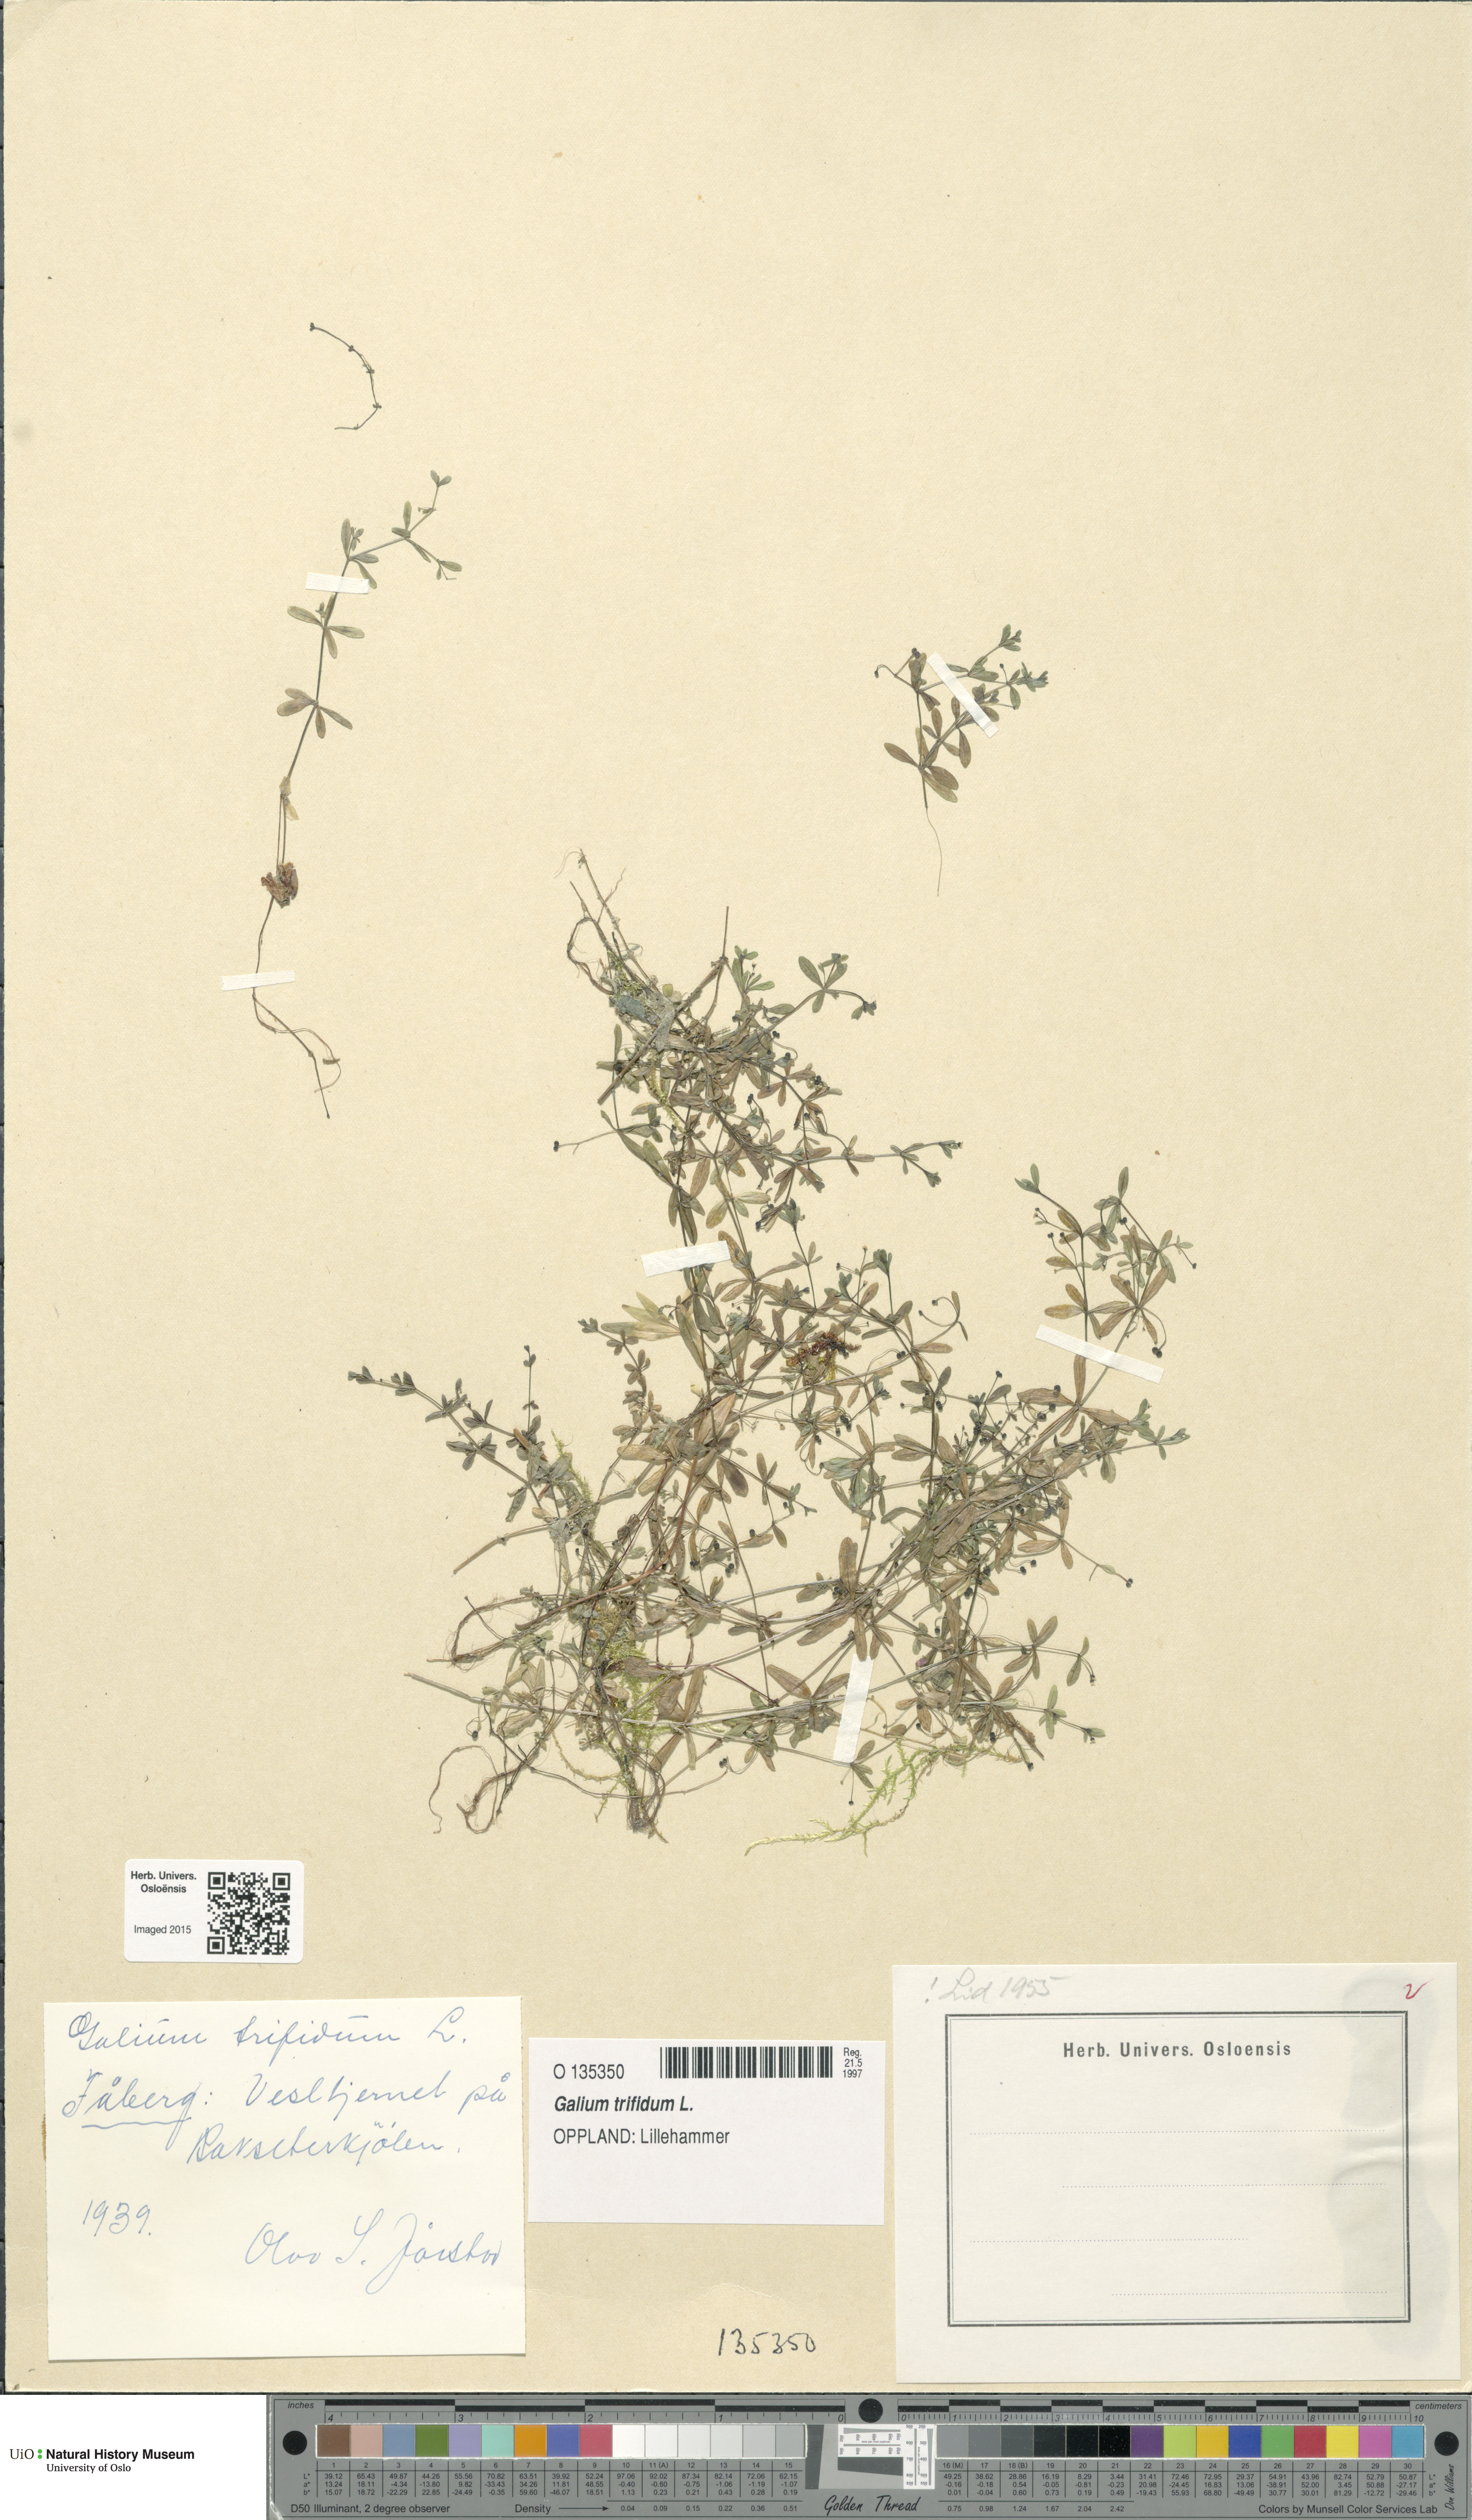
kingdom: Plantae
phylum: Tracheophyta
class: Magnoliopsida
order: Gentianales
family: Rubiaceae
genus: Galium
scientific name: Galium trifidum
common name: Small bedstraw
